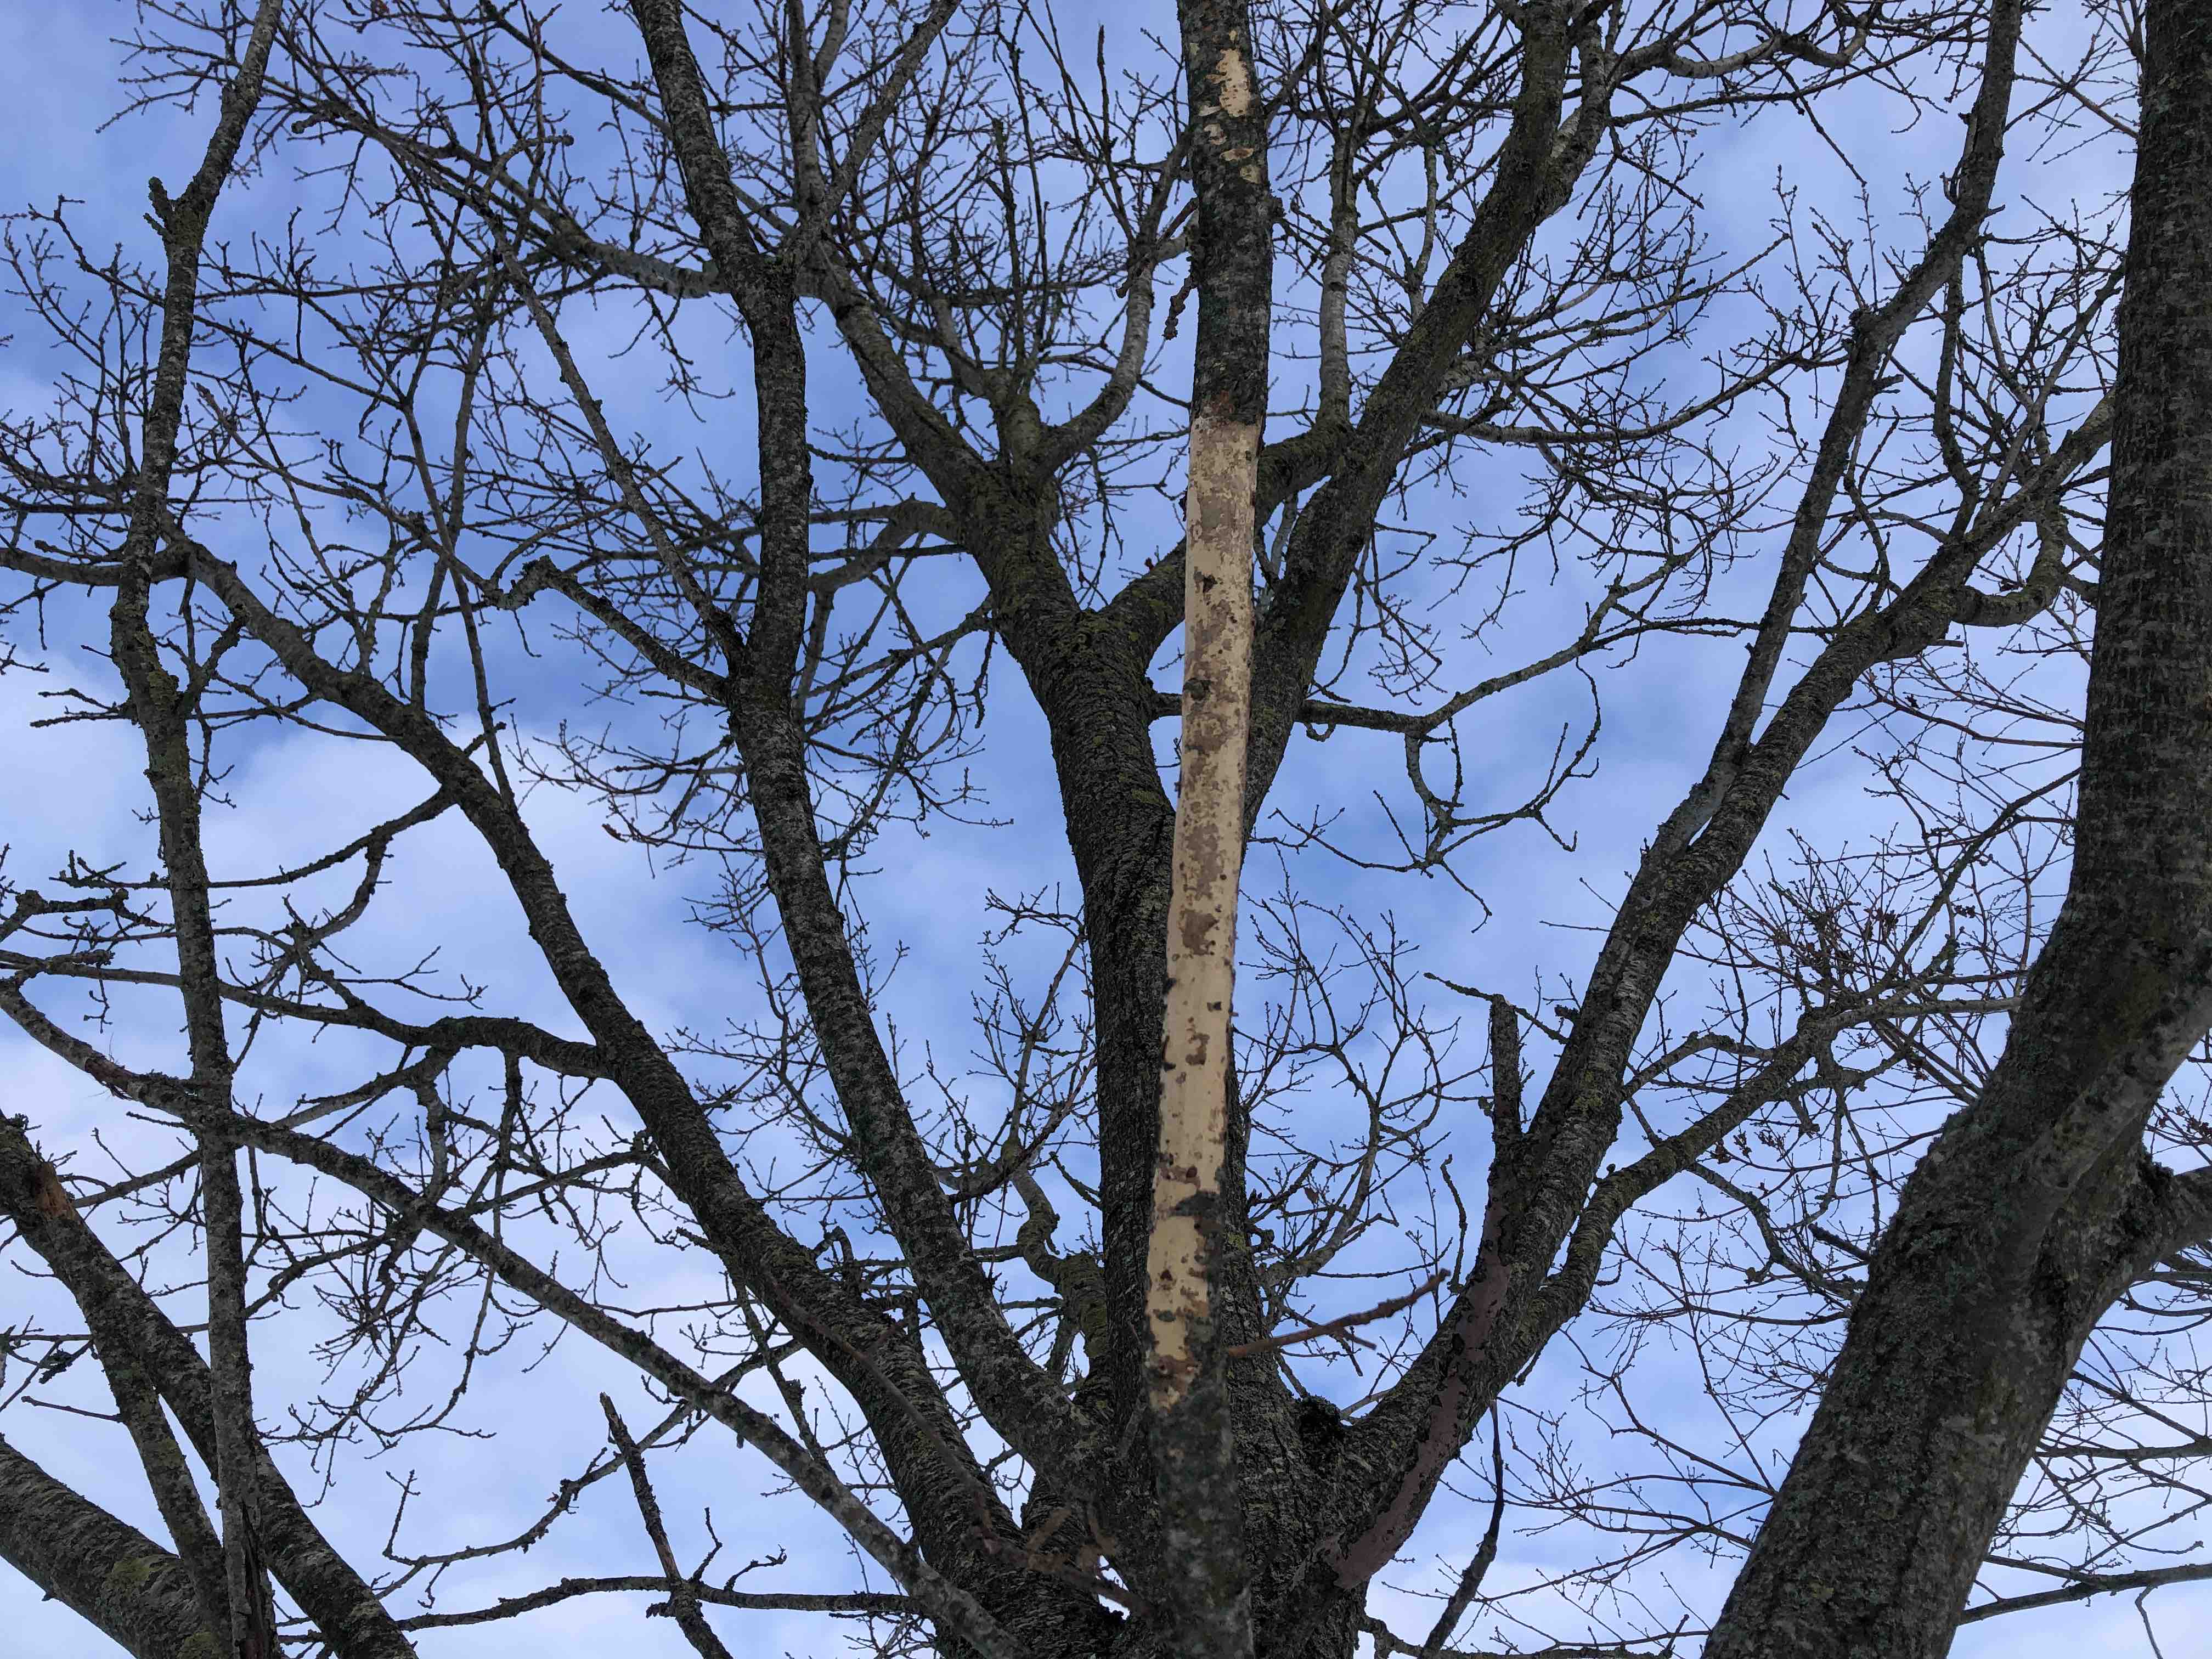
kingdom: Fungi
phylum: Basidiomycota
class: Agaricomycetes
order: Corticiales
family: Vuilleminiaceae
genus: Vuilleminia
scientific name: Vuilleminia comedens
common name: almindelig barksprænger
